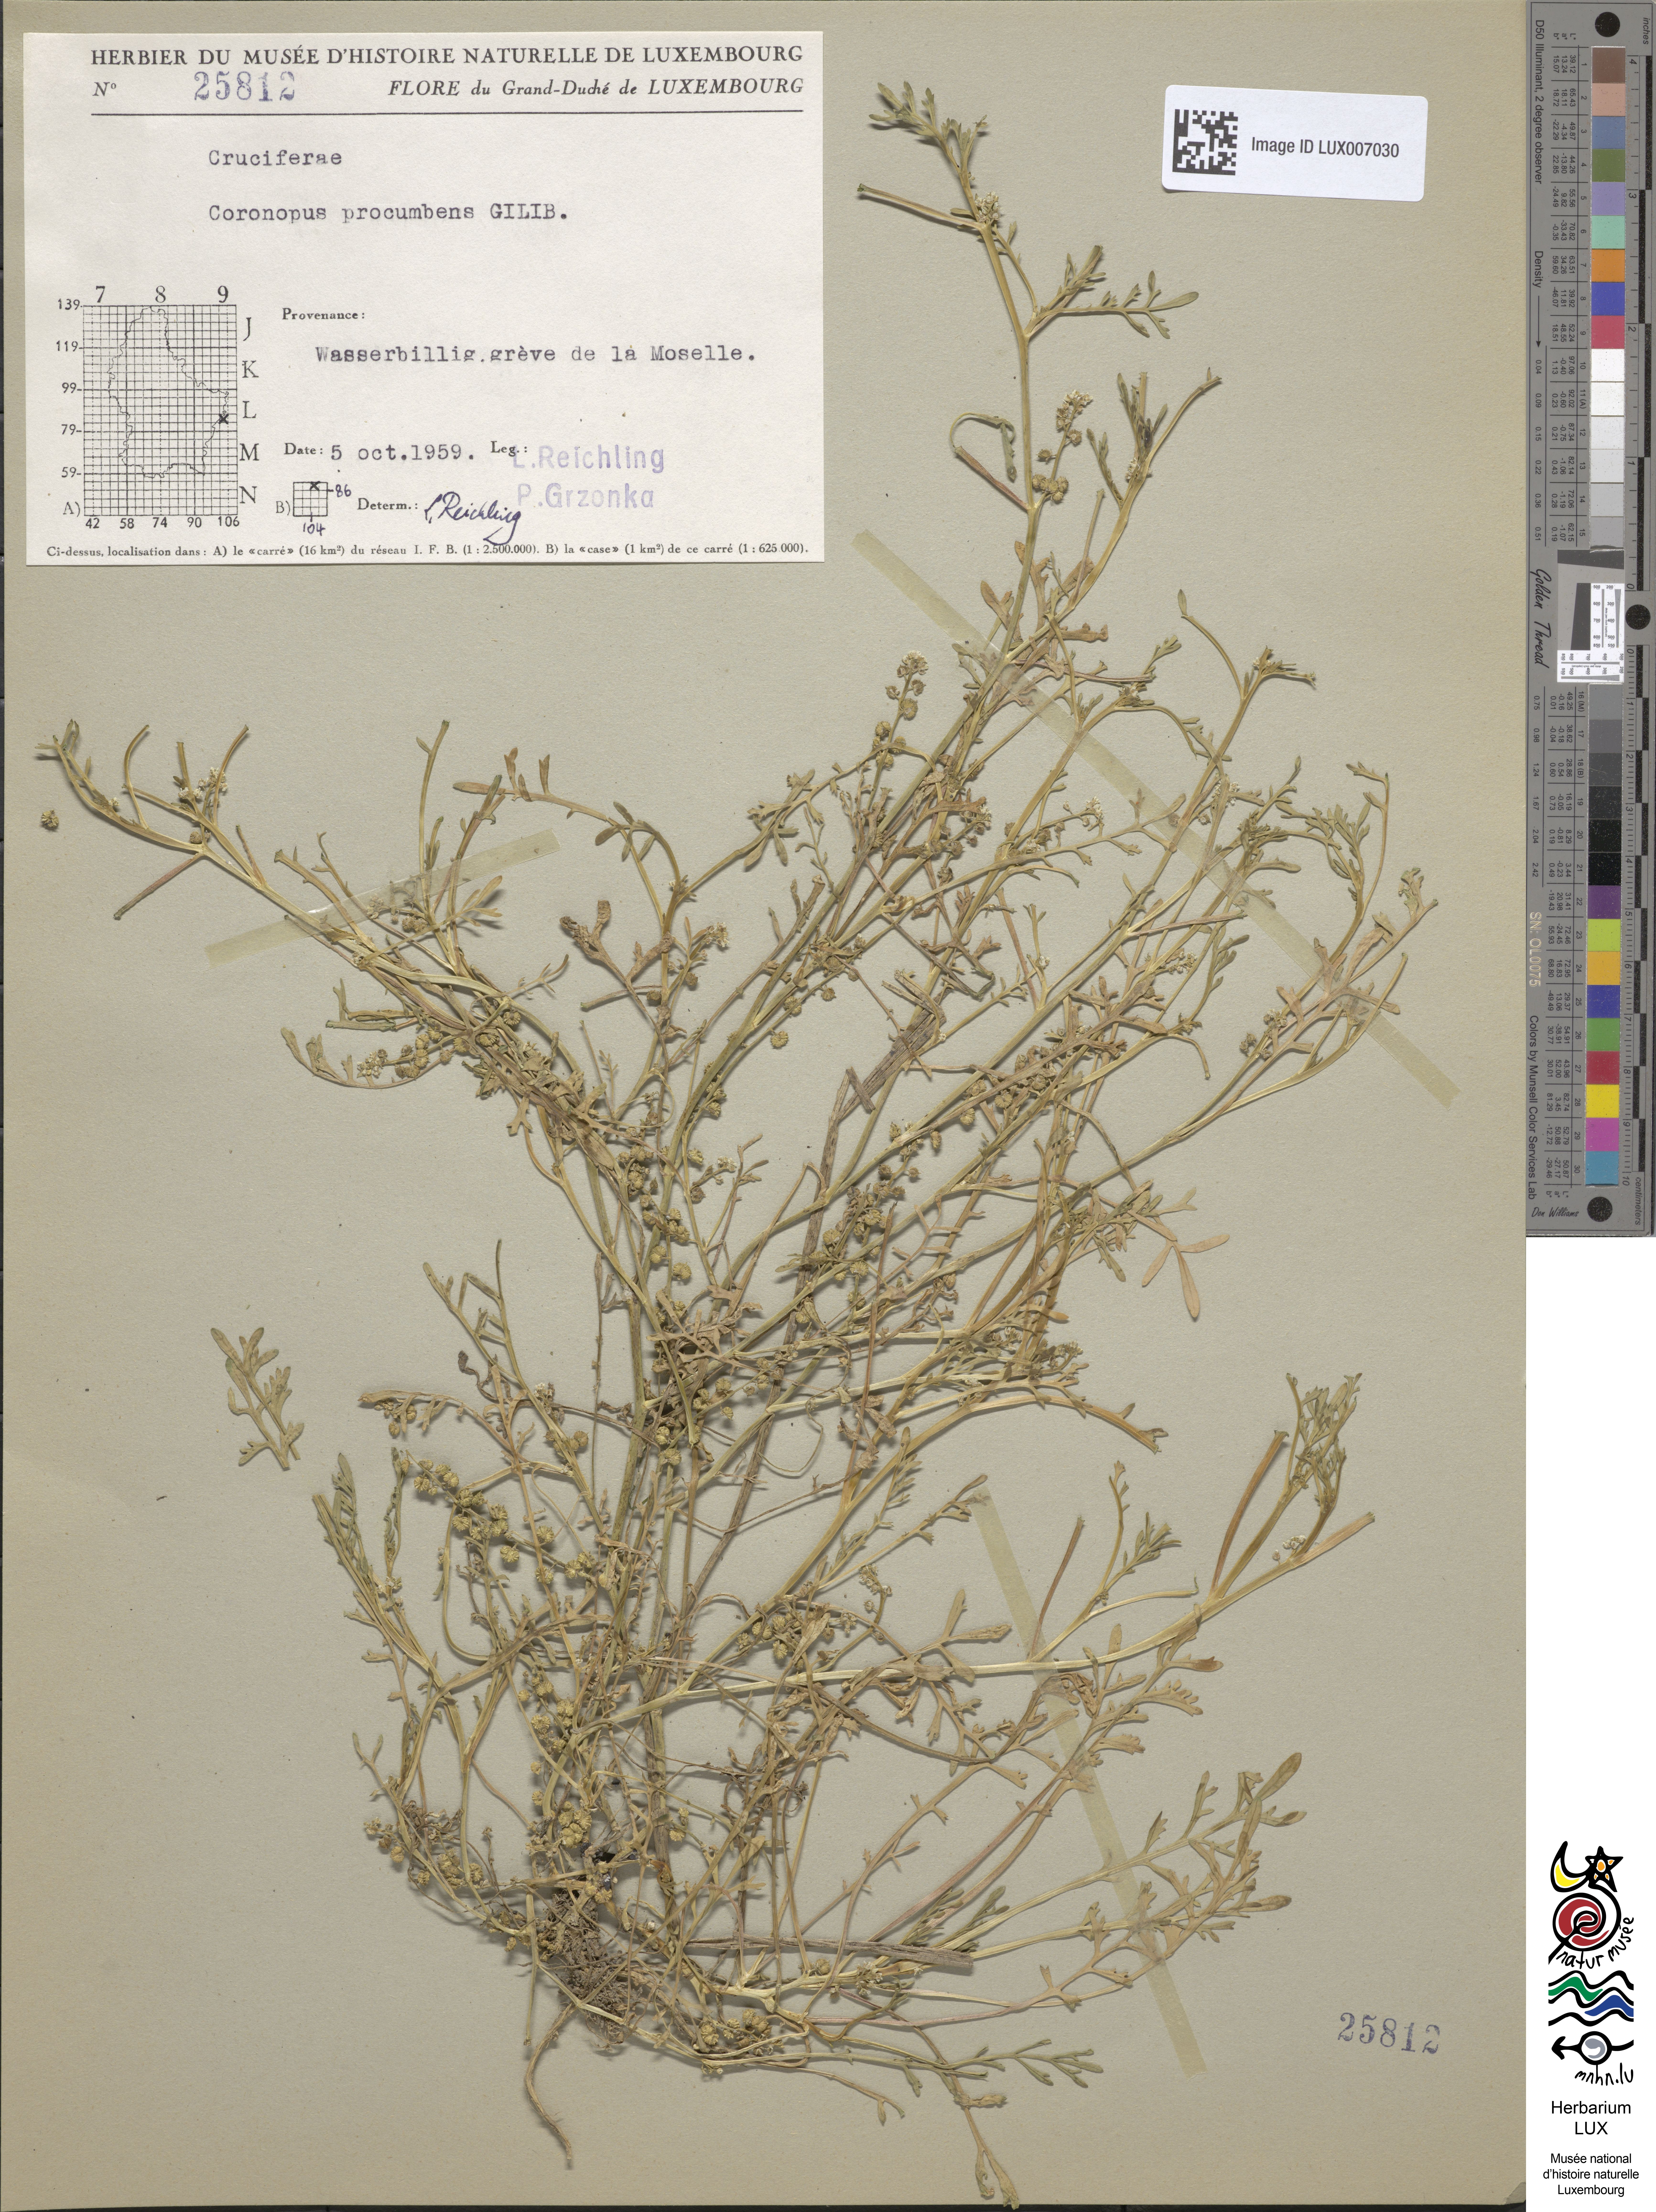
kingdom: Plantae
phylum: Tracheophyta
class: Magnoliopsida
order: Brassicales
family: Brassicaceae
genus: Lepidium
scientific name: Lepidium coronopus
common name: Greater swinecress
